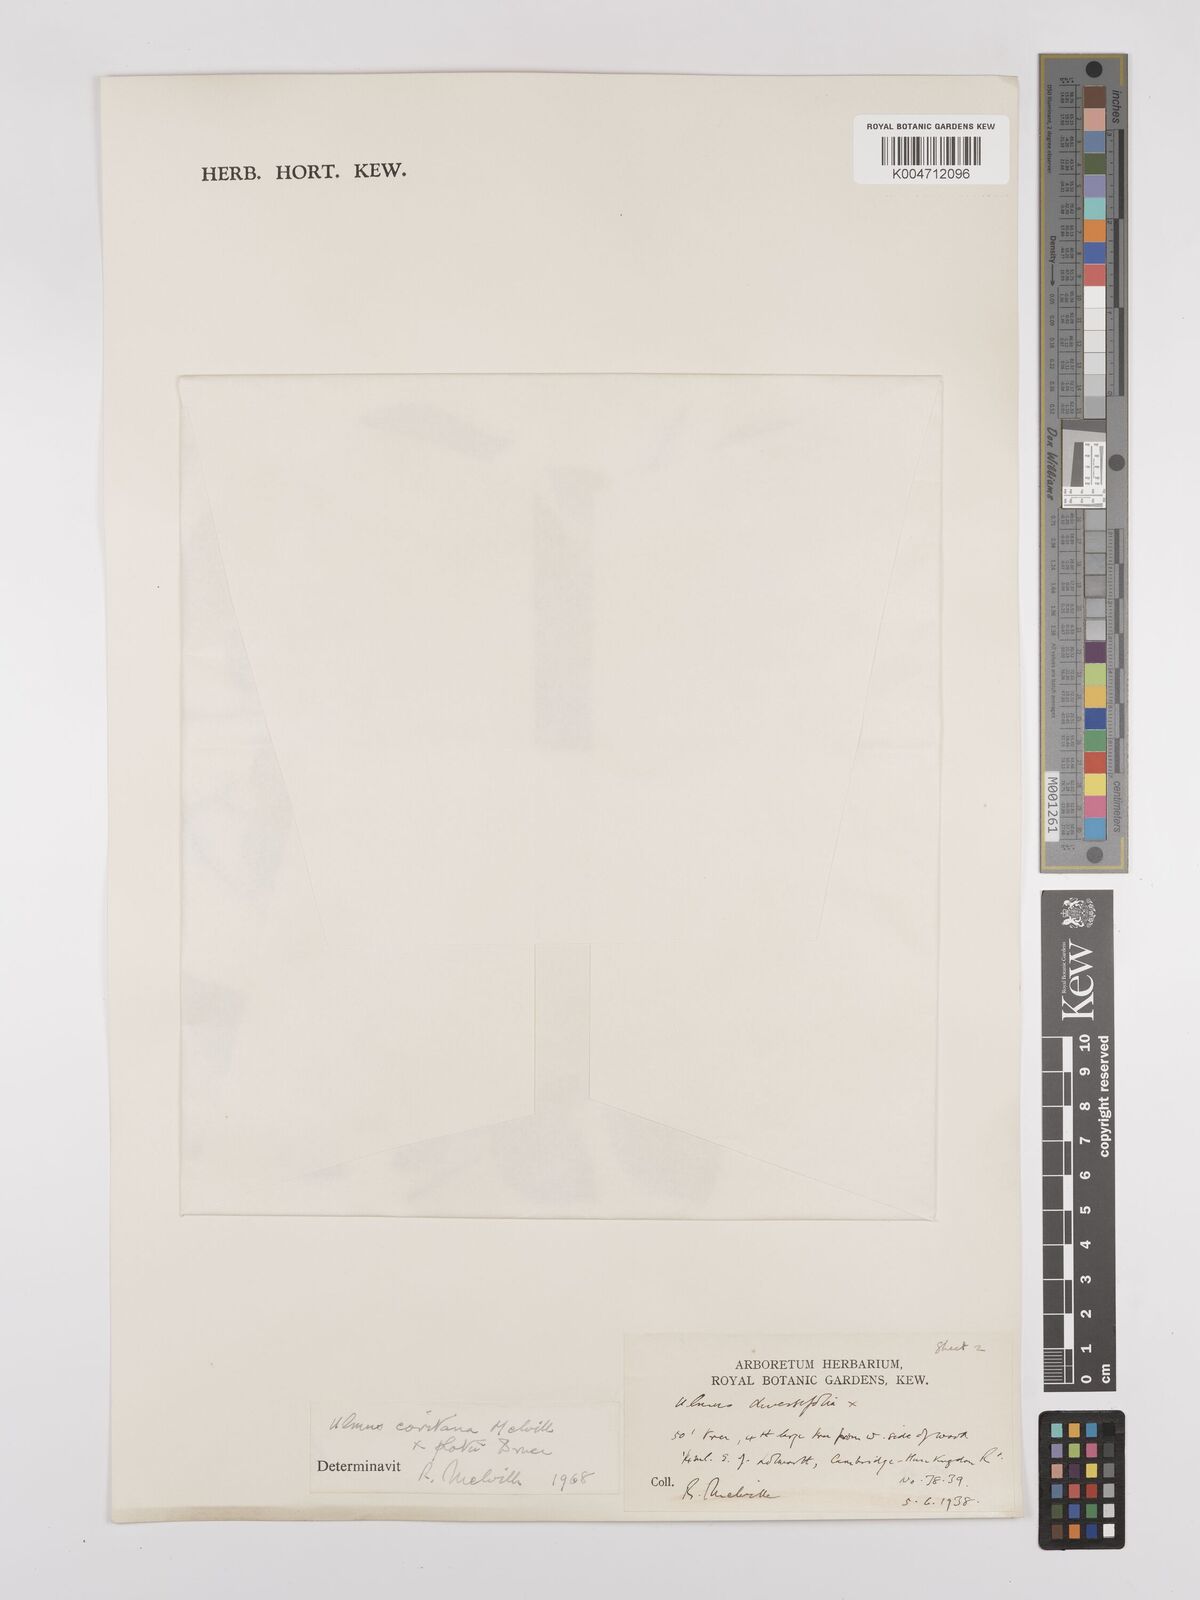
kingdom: Plantae
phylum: Tracheophyta
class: Magnoliopsida
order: Rosales
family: Ulmaceae
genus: Ulmus
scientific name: Ulmus minor
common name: Small-leaved elm
